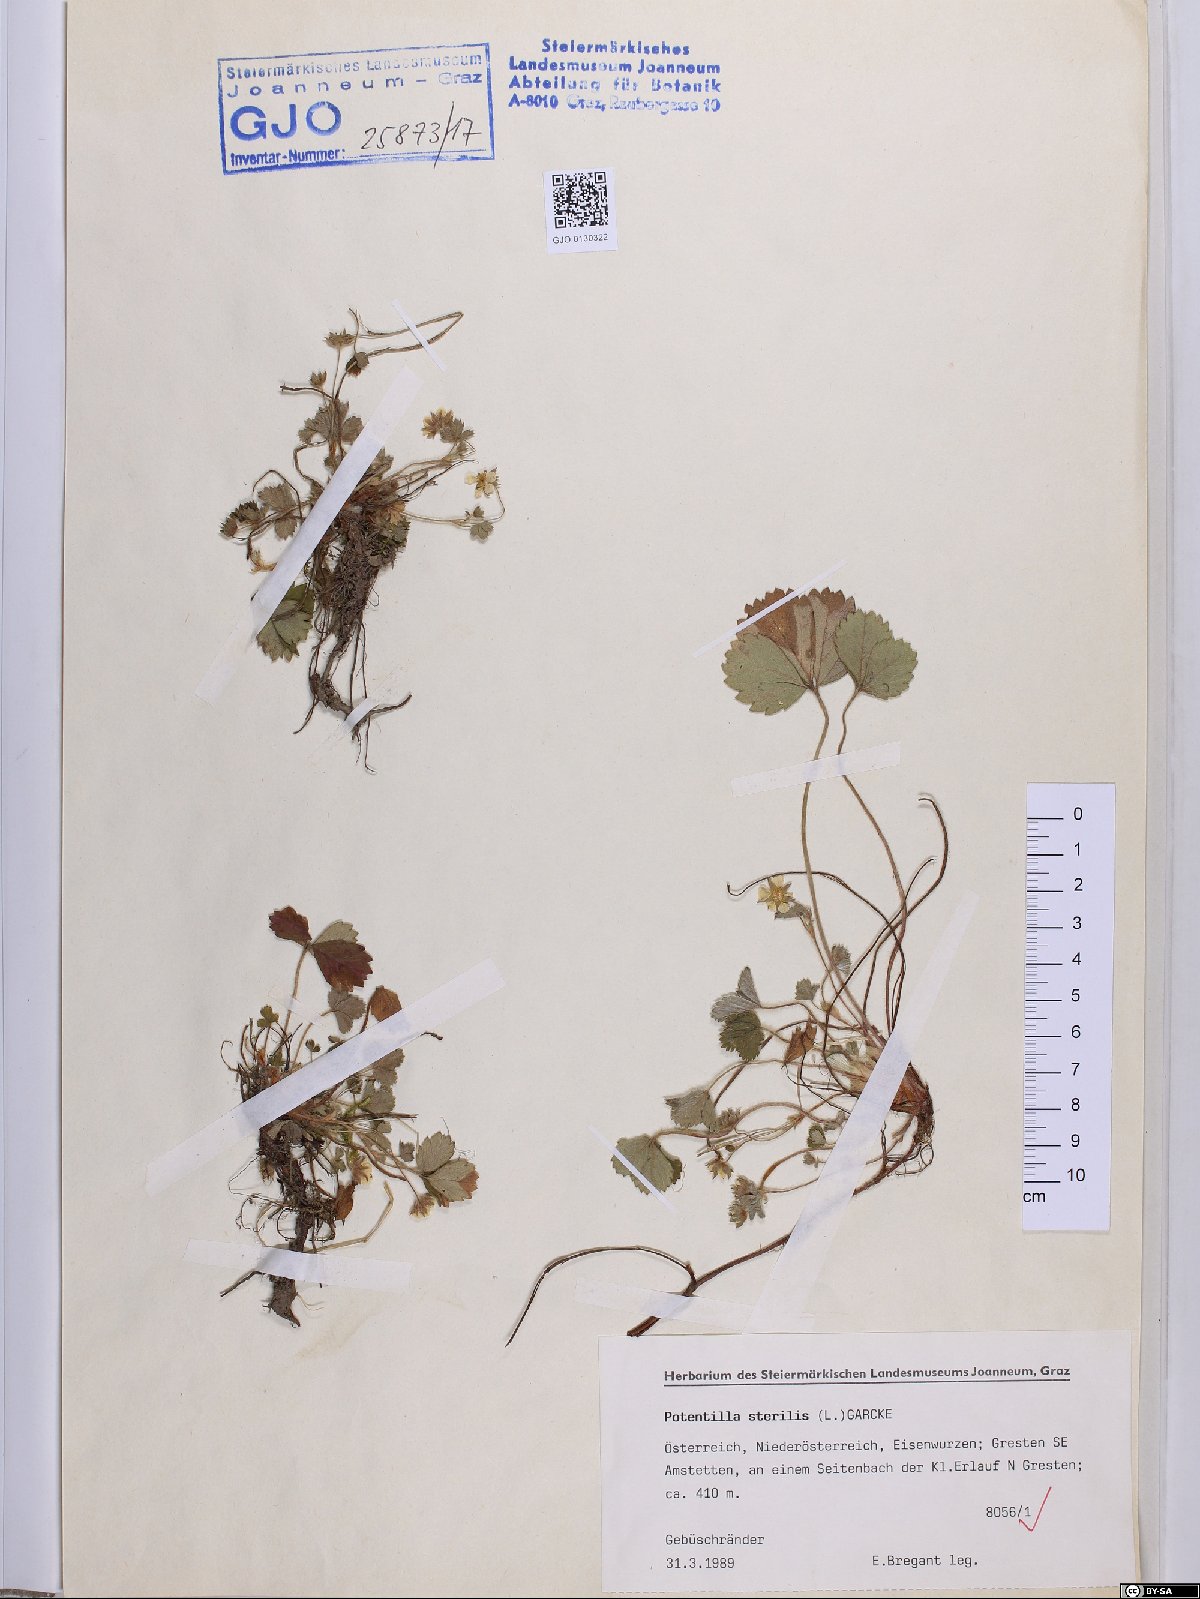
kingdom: Plantae
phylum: Tracheophyta
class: Magnoliopsida
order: Rosales
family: Rosaceae
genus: Potentilla
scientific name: Potentilla sterilis
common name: Barren strawberry
